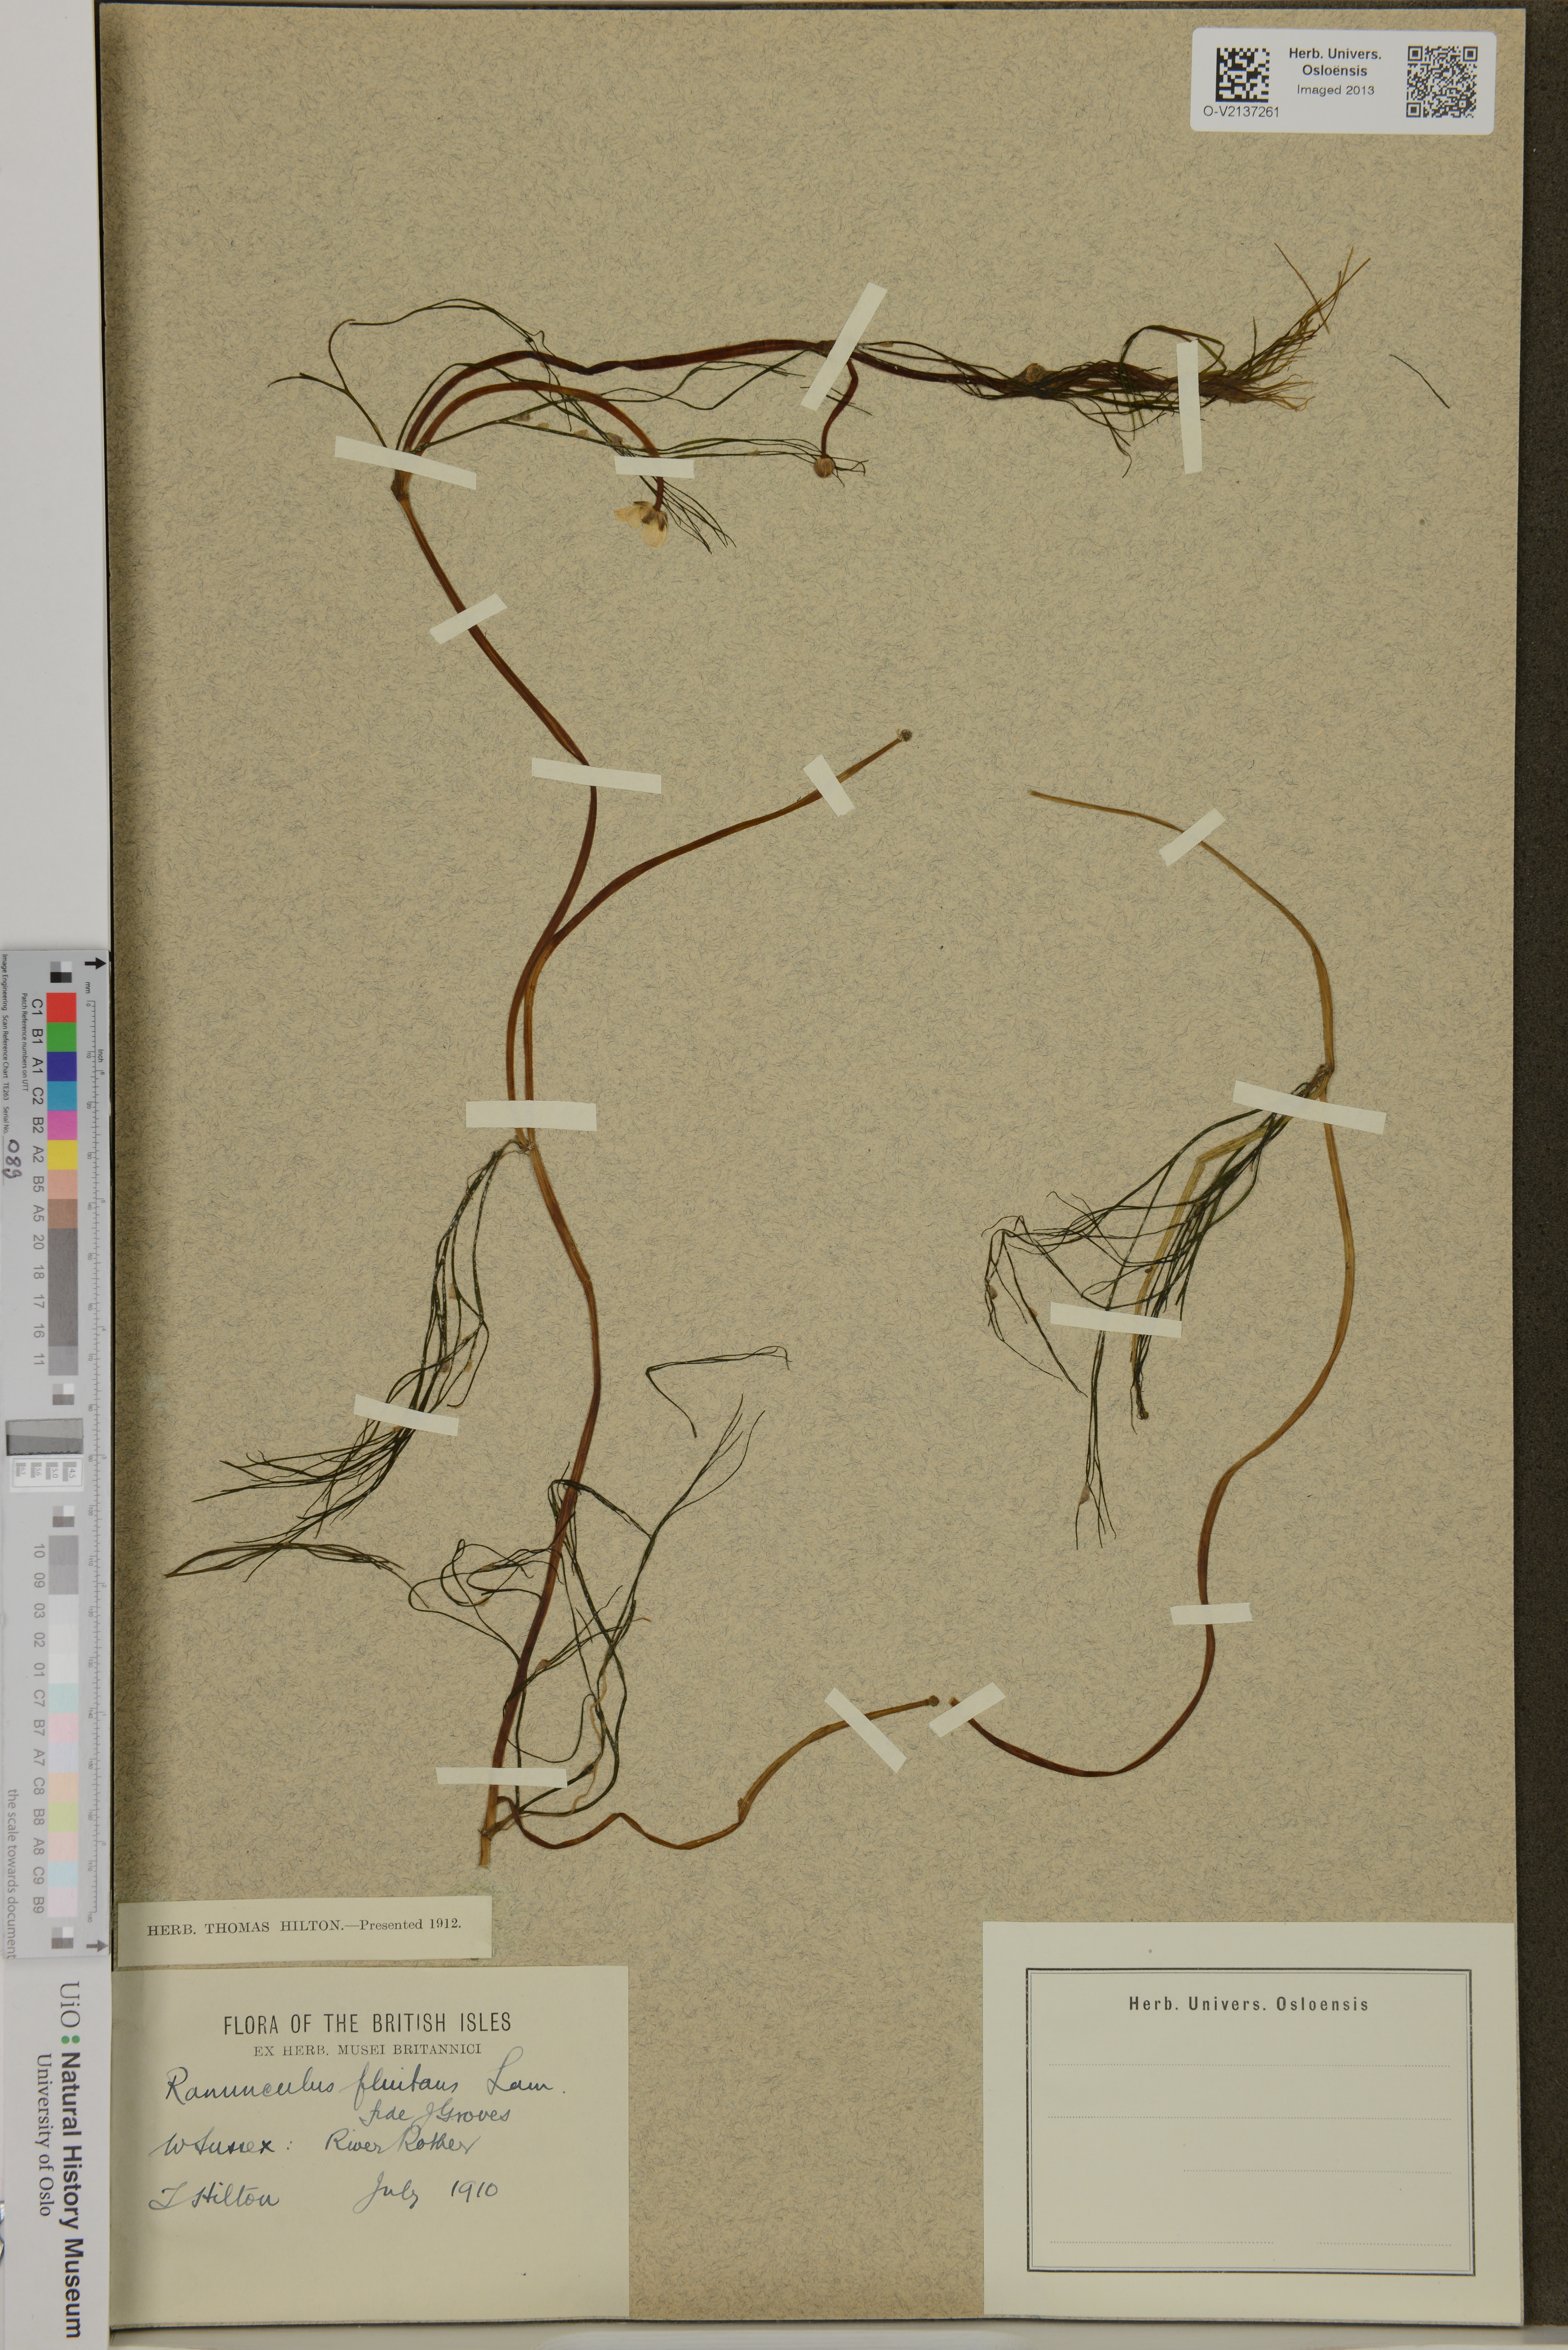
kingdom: Plantae
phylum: Tracheophyta
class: Magnoliopsida
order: Ranunculales
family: Ranunculaceae
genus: Ranunculus
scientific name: Ranunculus fluitans
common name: River water-crowfoot
